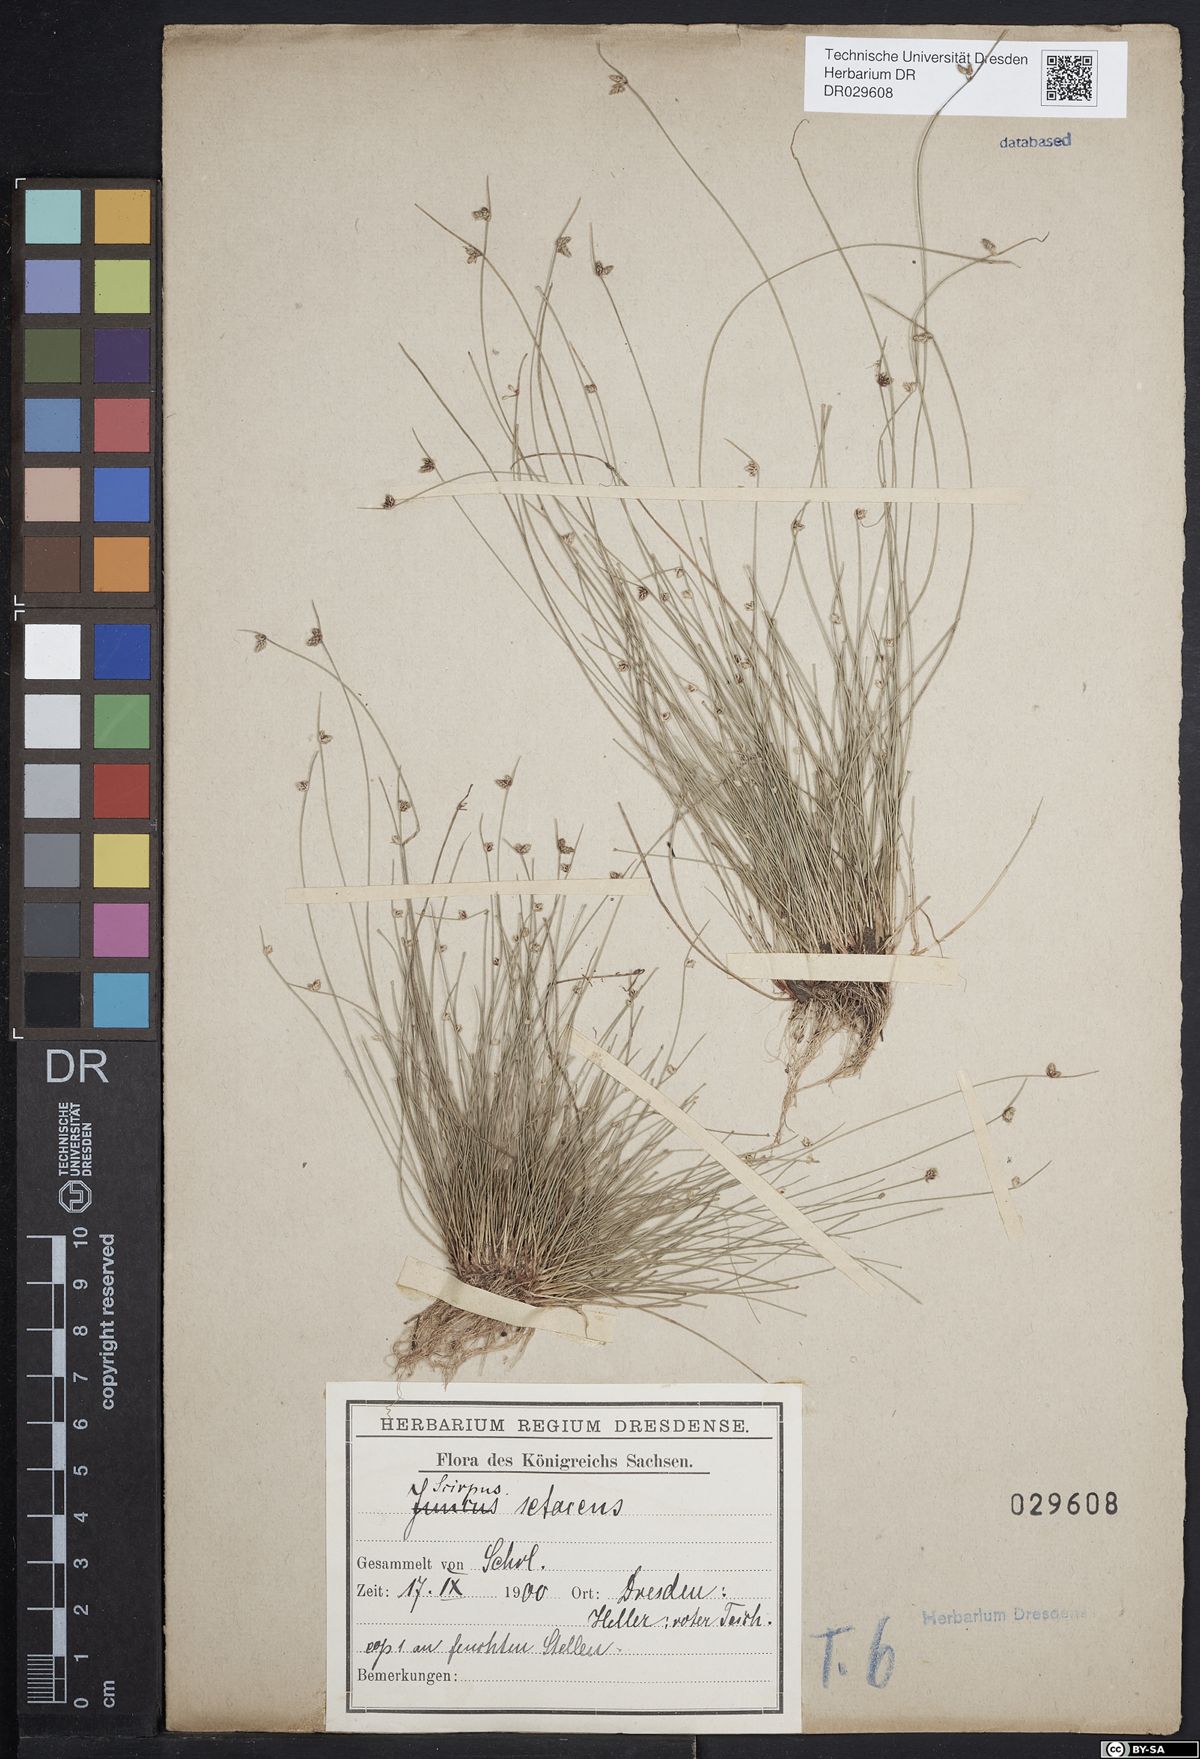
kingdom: Plantae
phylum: Tracheophyta
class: Liliopsida
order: Poales
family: Cyperaceae
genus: Isolepis
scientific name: Isolepis setacea
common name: Bristle club-rush
